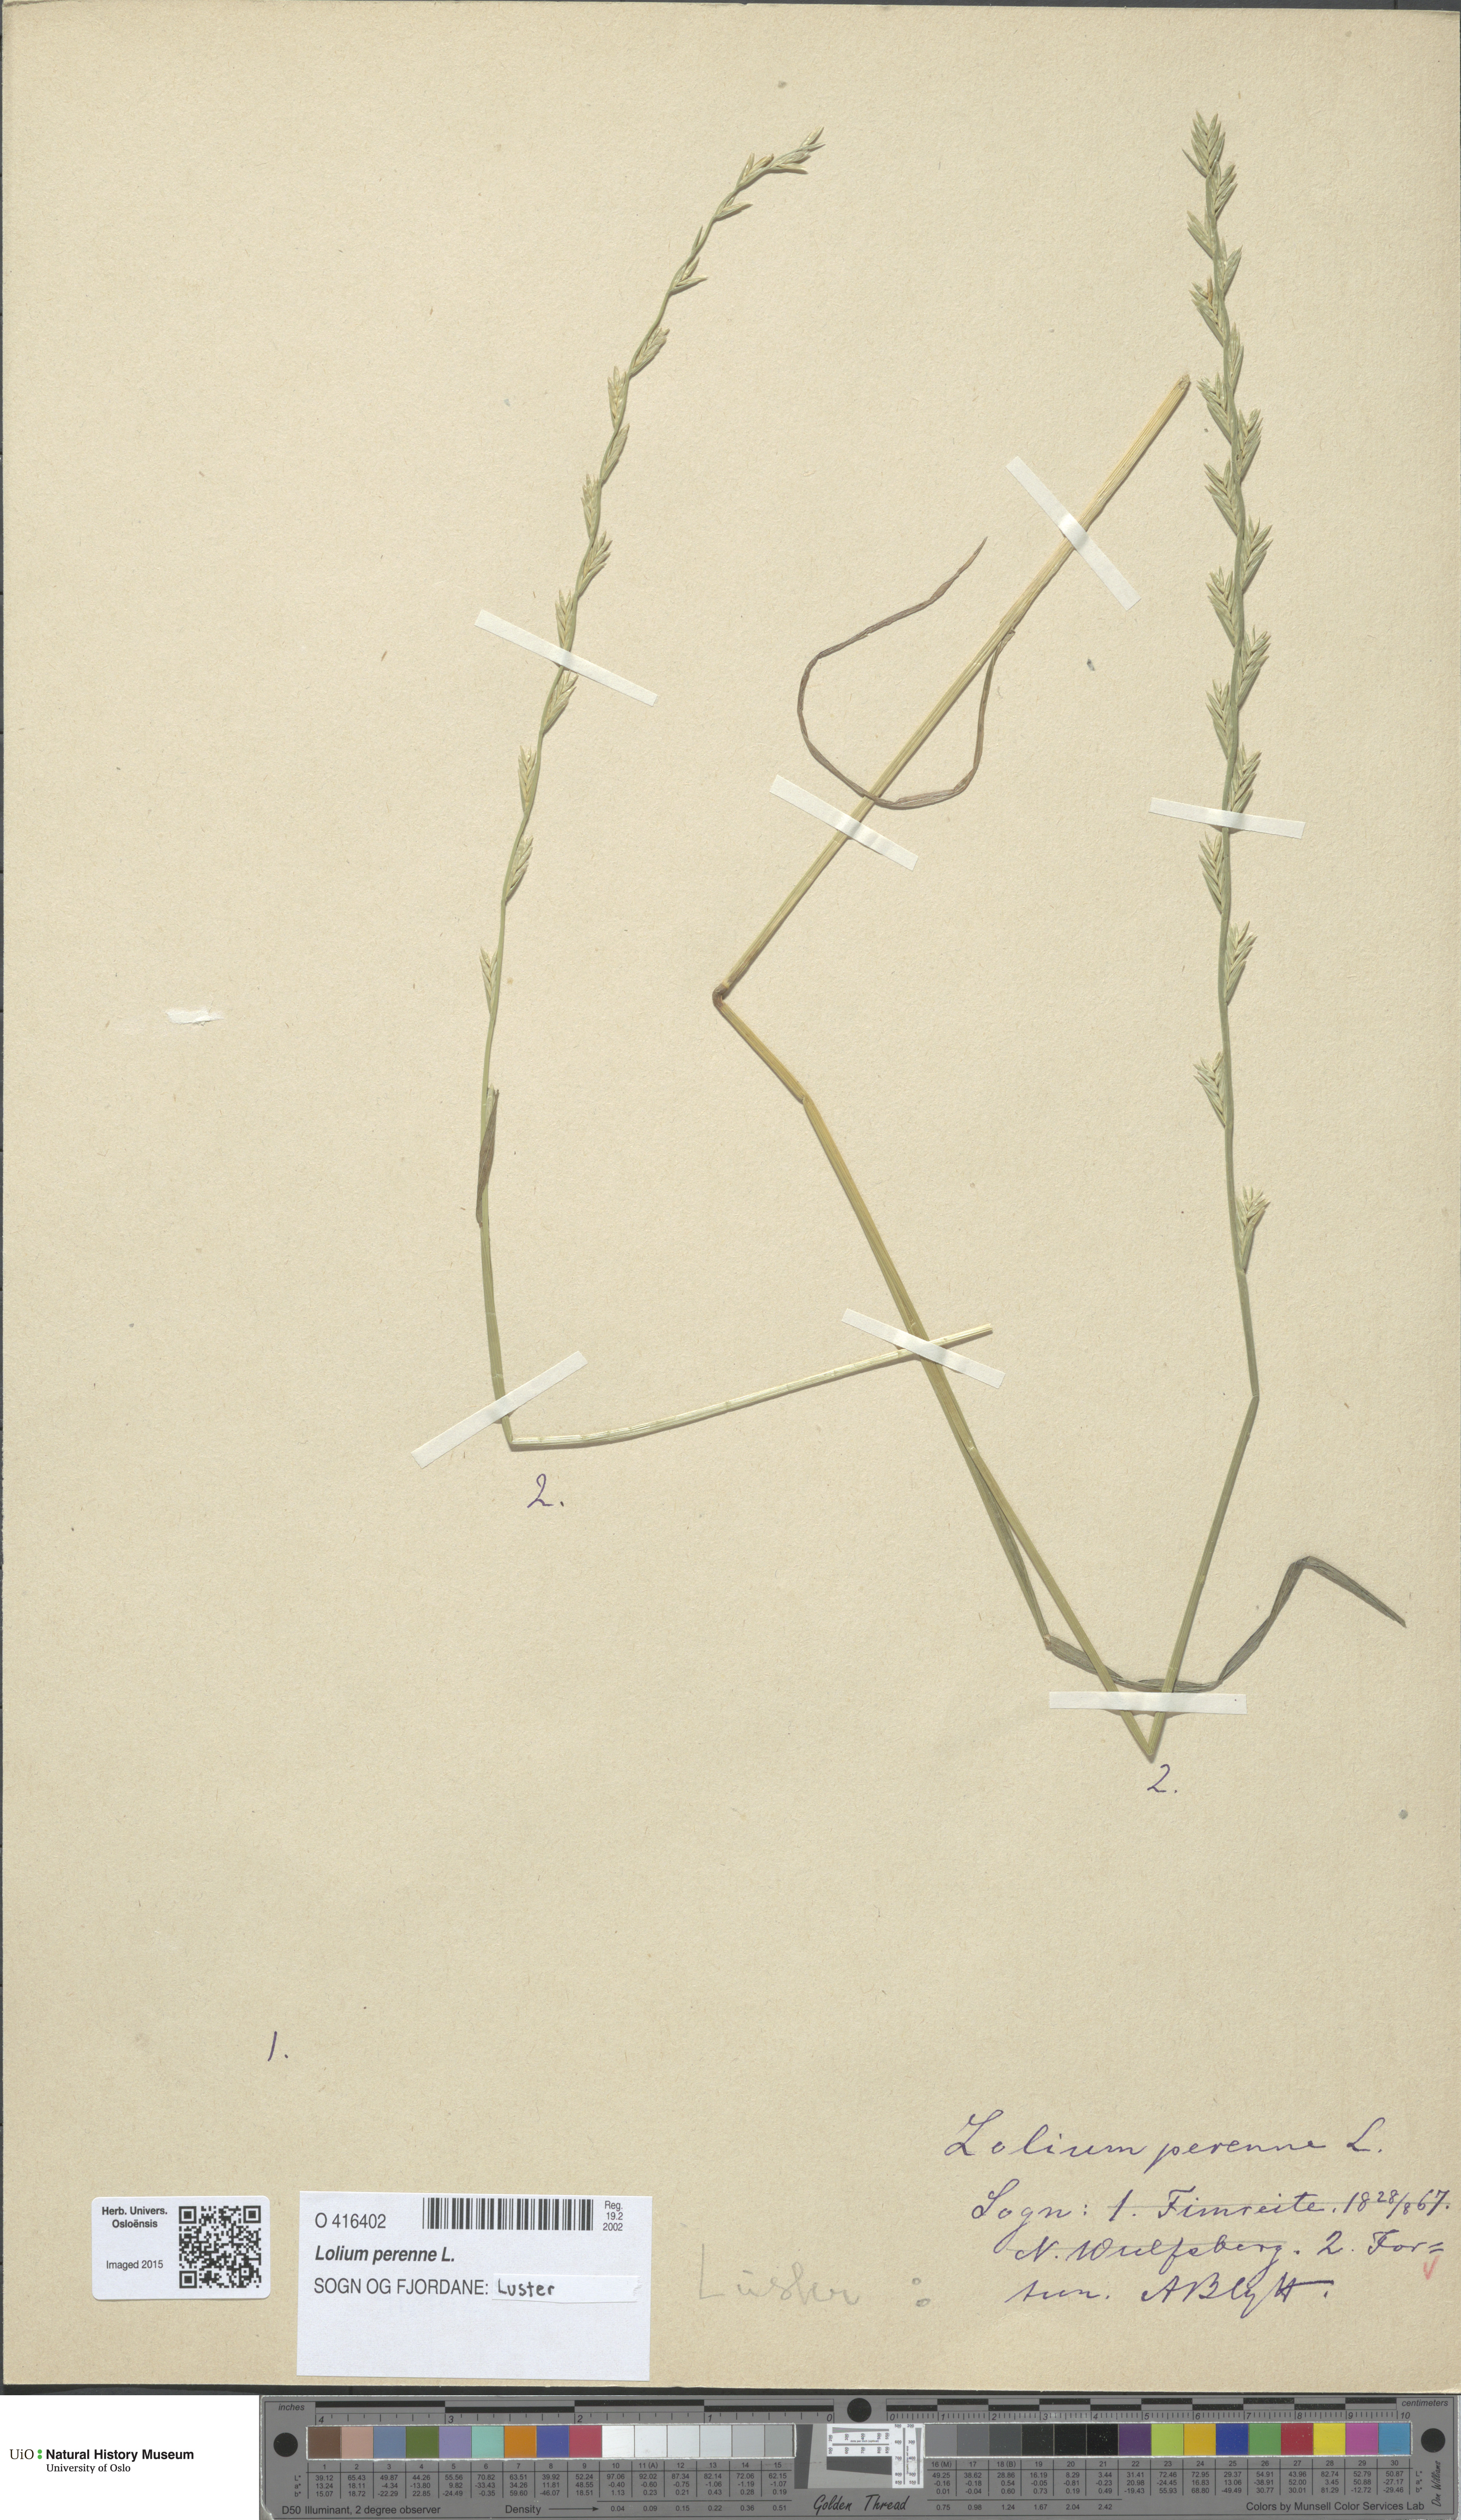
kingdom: Plantae
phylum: Tracheophyta
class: Liliopsida
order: Poales
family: Poaceae
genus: Lolium
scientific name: Lolium perenne
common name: Perennial ryegrass
